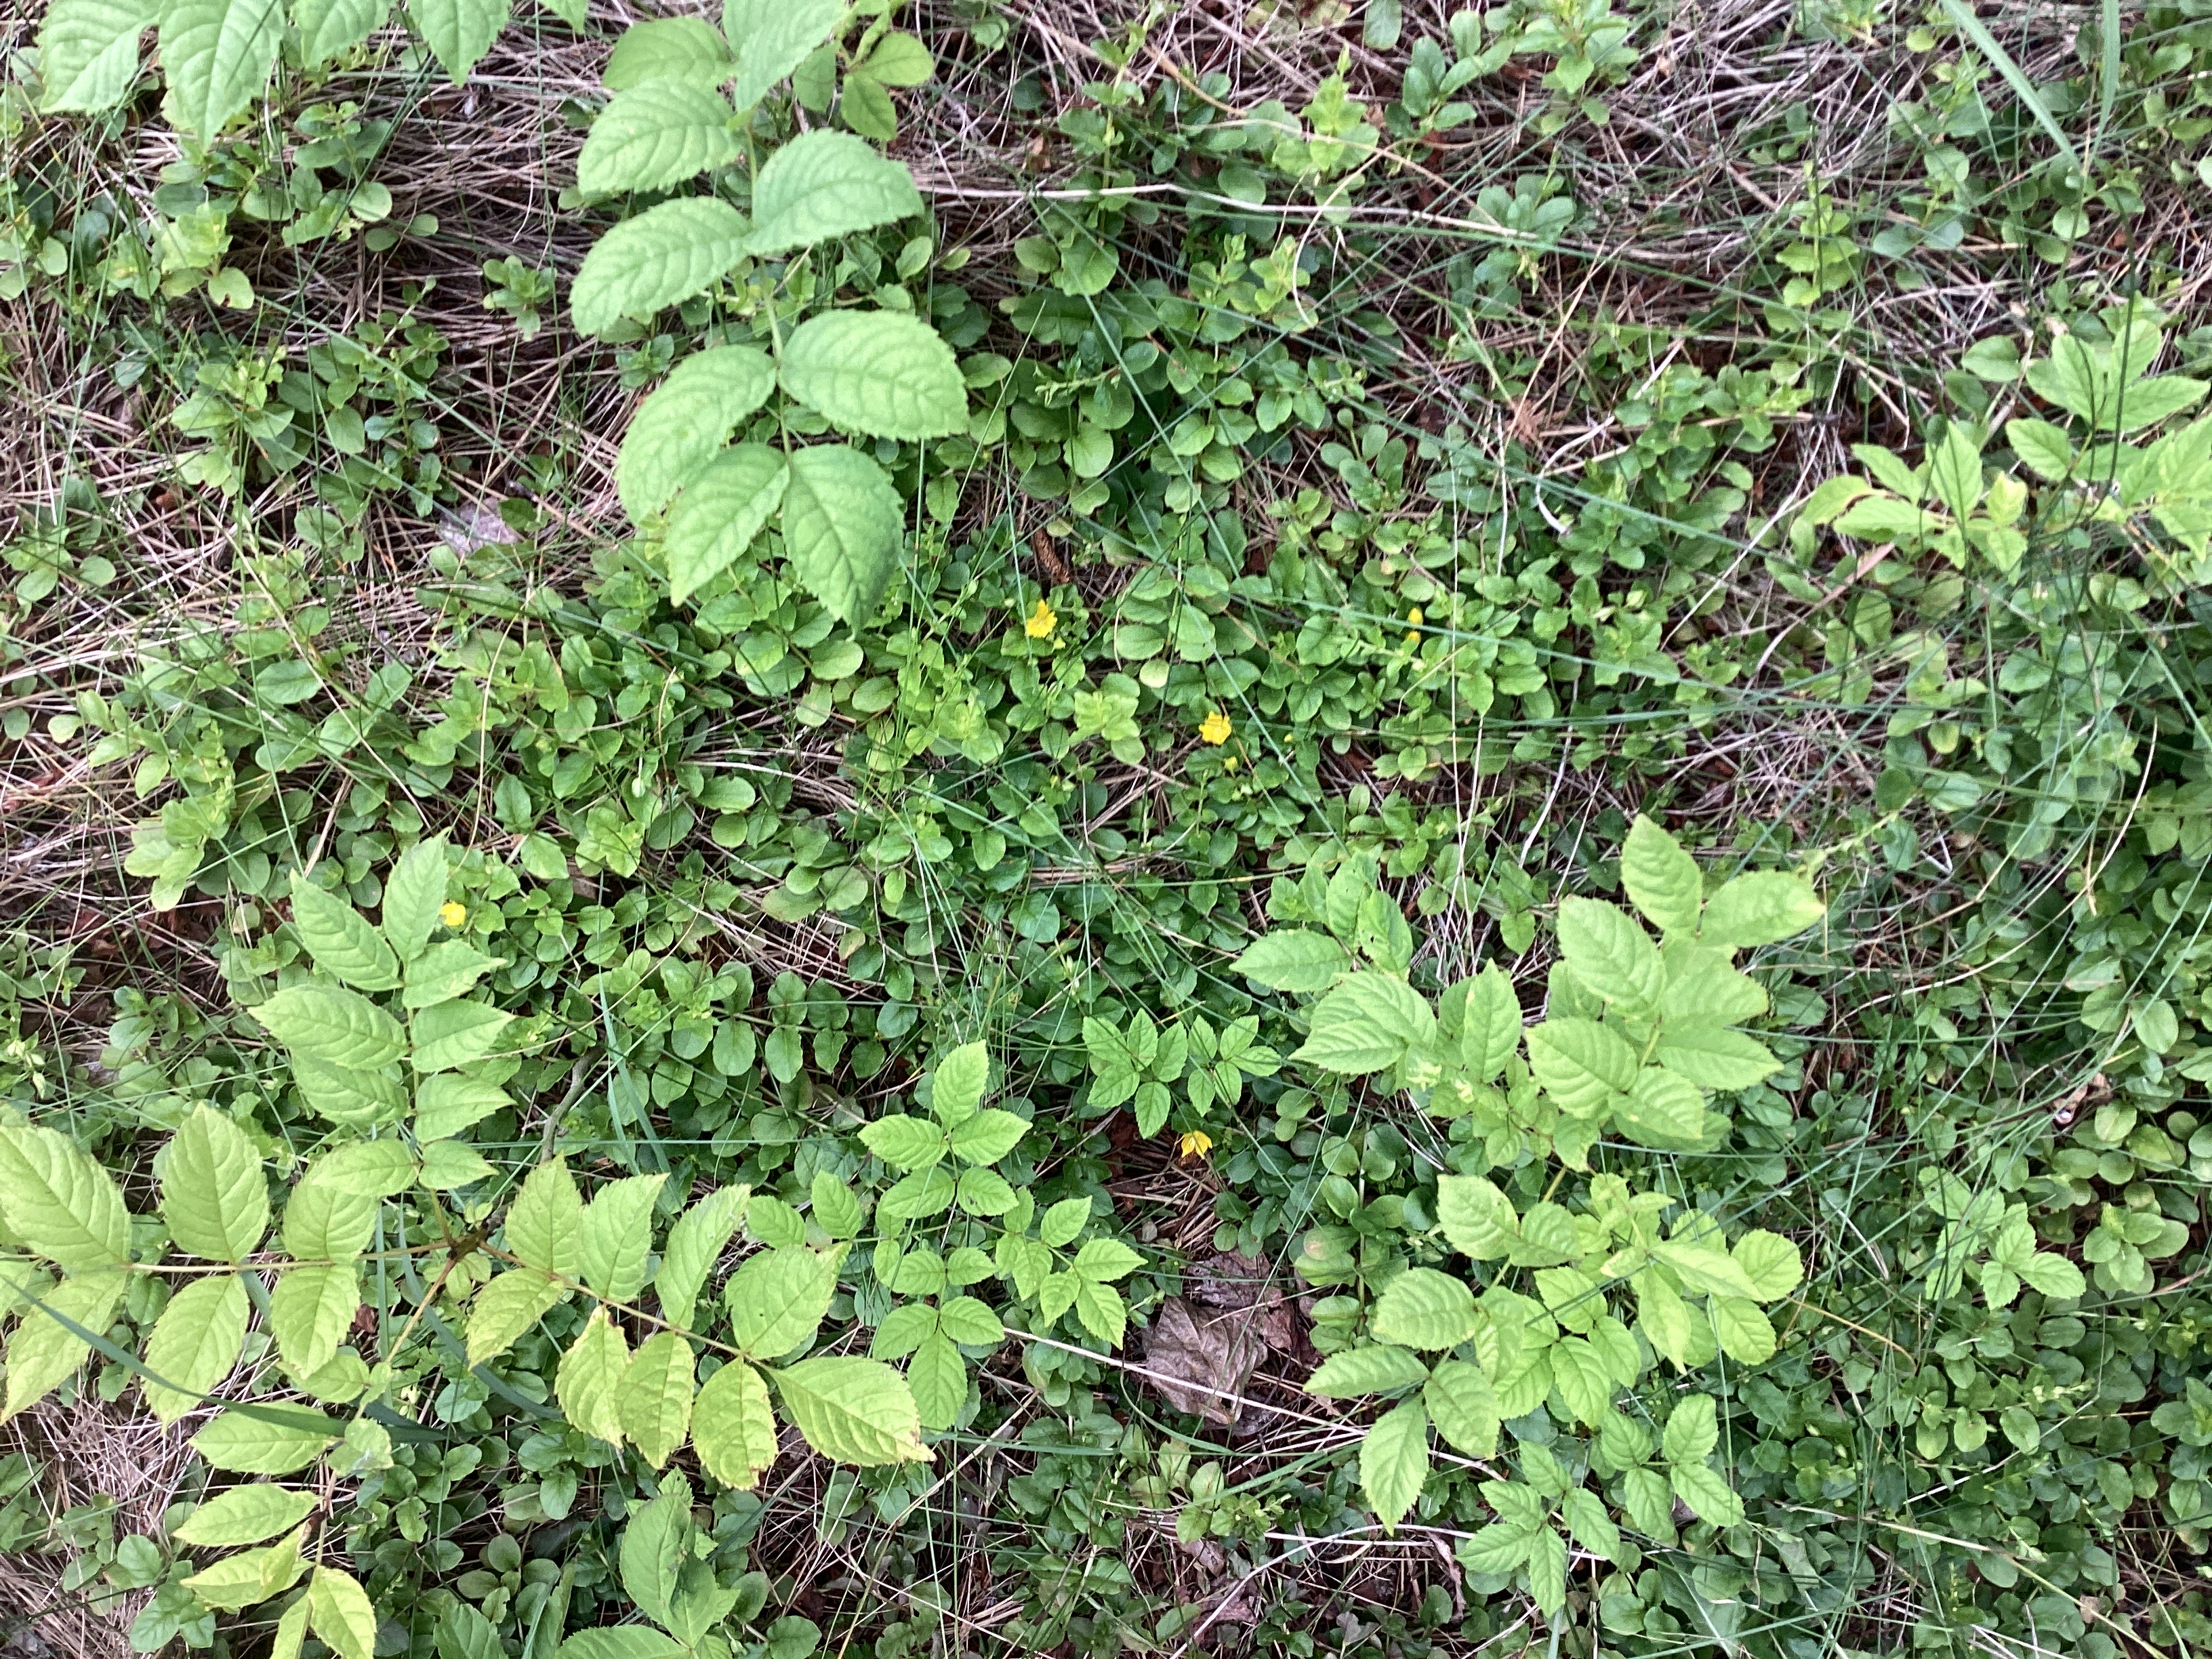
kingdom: Plantae
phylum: Tracheophyta
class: Magnoliopsida
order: Ericales
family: Primulaceae
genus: Lysimachia
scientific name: Lysimachia nummularia
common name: krypfredløs
